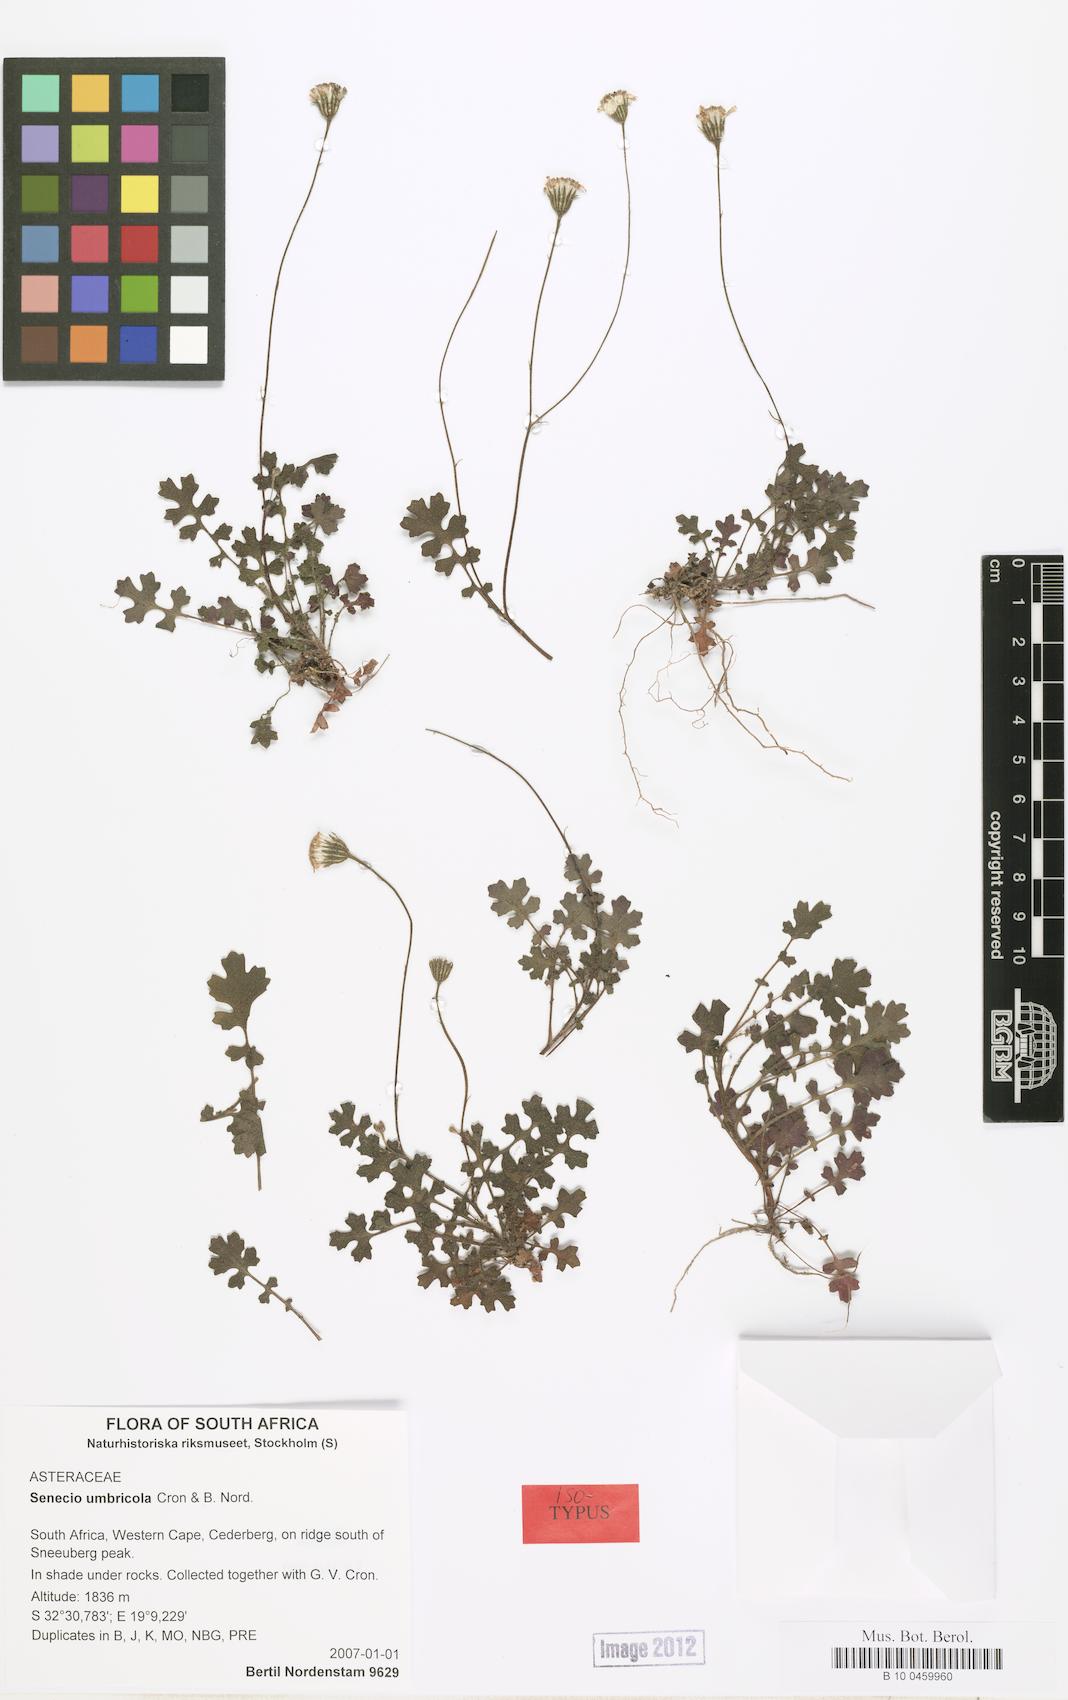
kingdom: Plantae
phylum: Tracheophyta
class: Magnoliopsida
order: Asterales
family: Asteraceae
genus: Senecio
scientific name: Senecio umbricola
